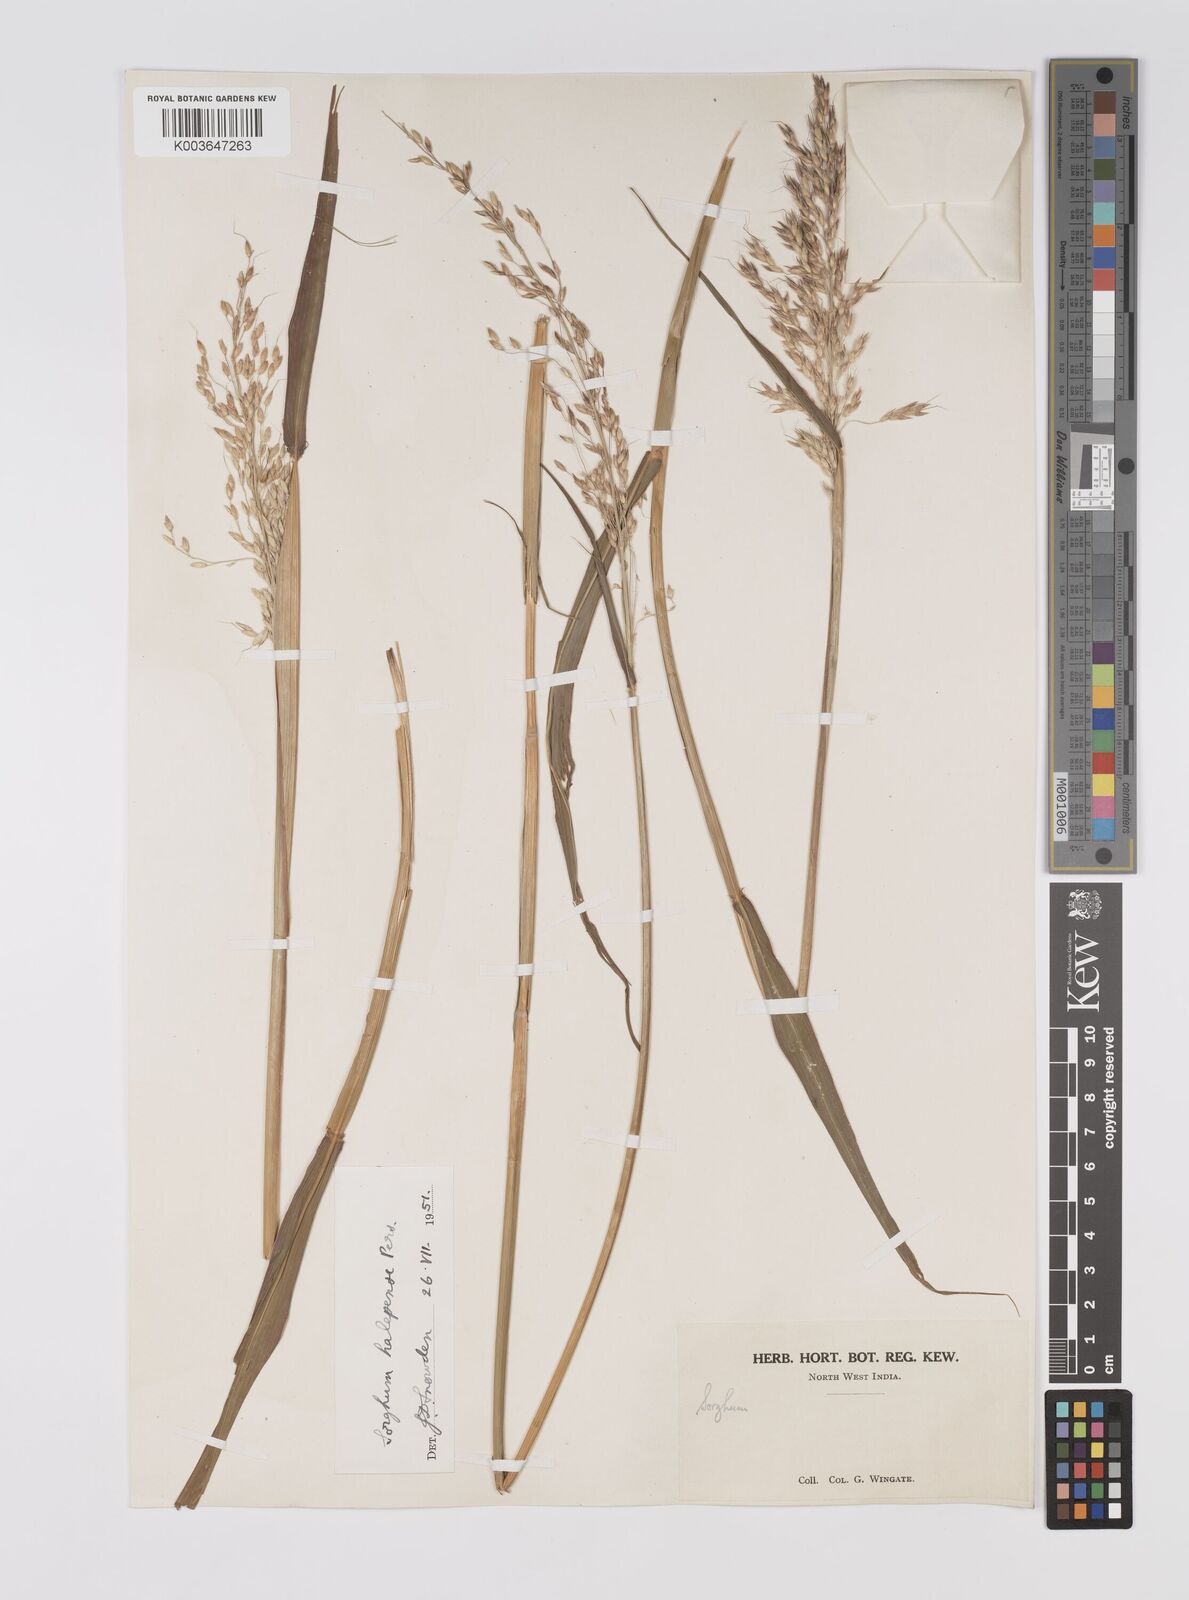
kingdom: Plantae
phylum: Tracheophyta
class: Liliopsida
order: Poales
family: Poaceae
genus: Sorghum
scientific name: Sorghum halepense
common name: Johnson-grass
